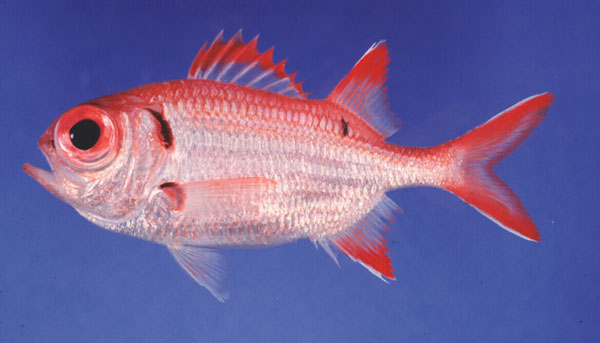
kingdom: Animalia
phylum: Chordata
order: Beryciformes
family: Holocentridae
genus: Myripristis
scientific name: Myripristis pralinia
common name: Big eye soldierfish
